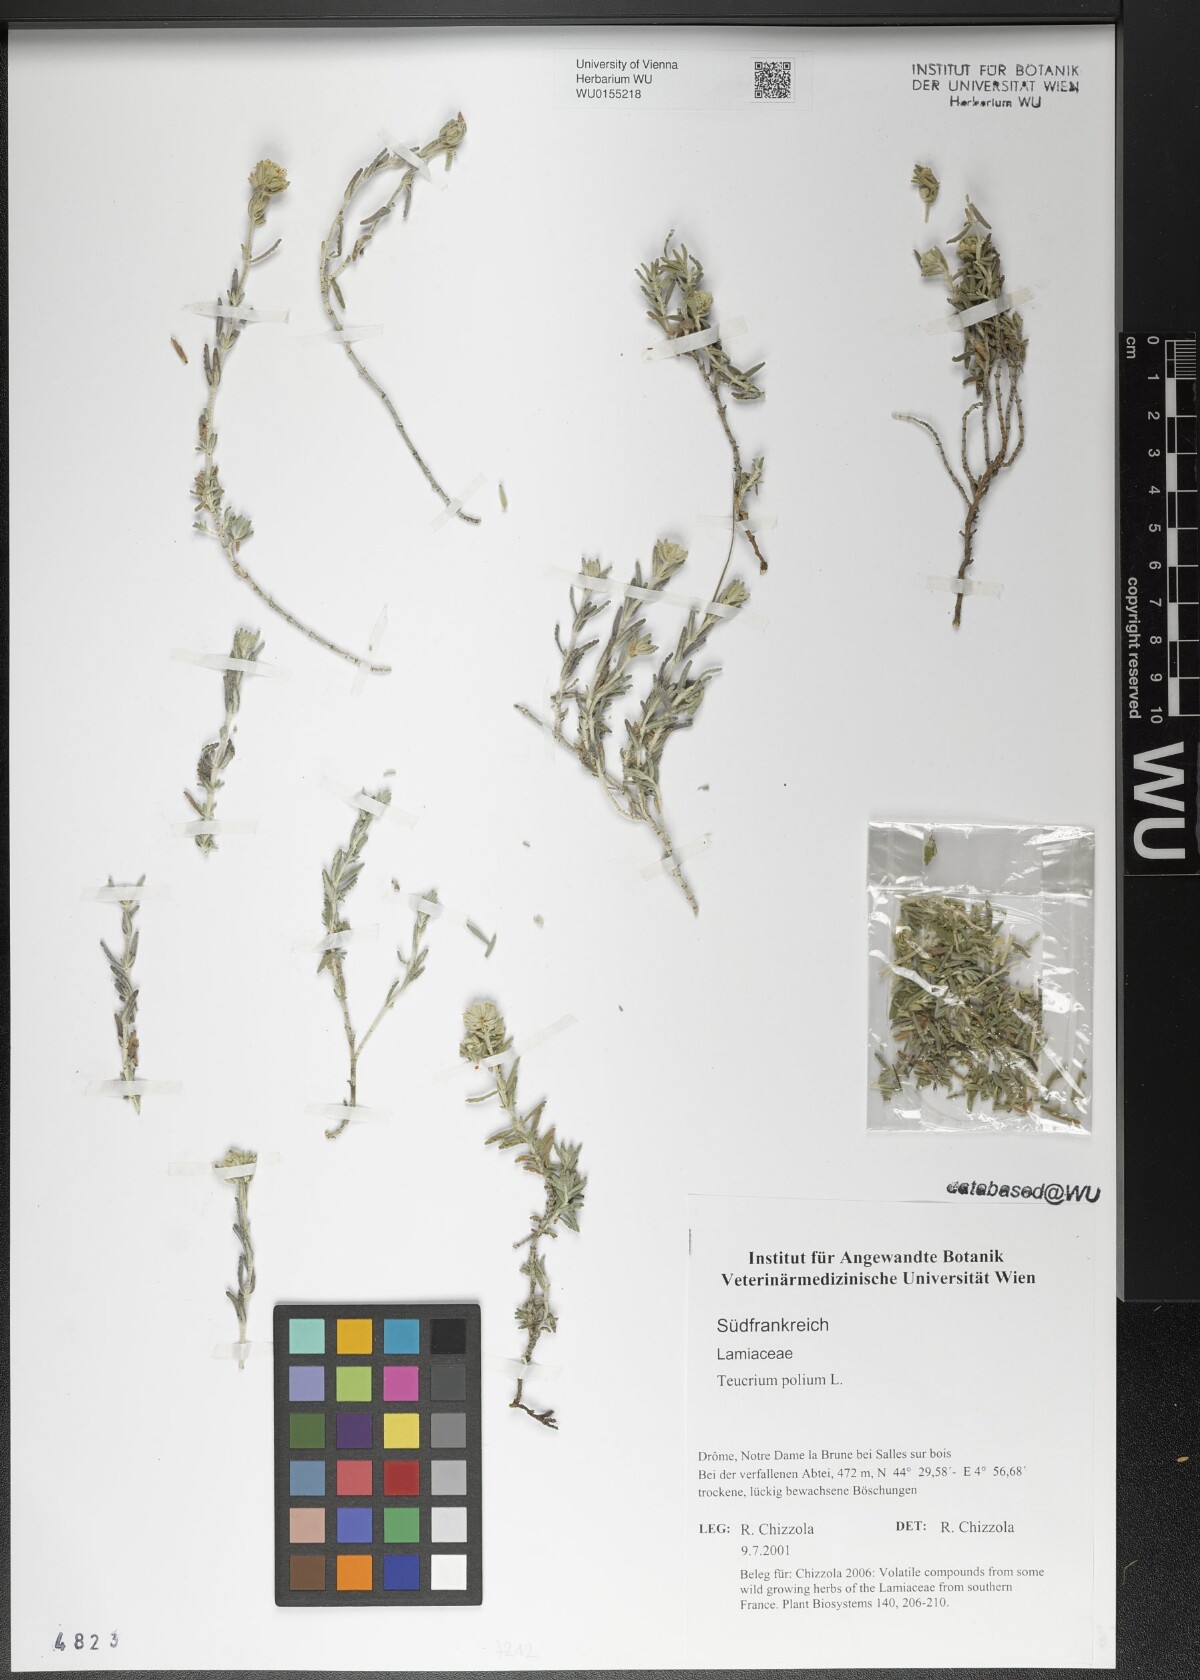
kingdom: Plantae
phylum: Tracheophyta
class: Magnoliopsida
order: Lamiales
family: Lamiaceae
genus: Teucrium
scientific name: Teucrium polium
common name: Poley
